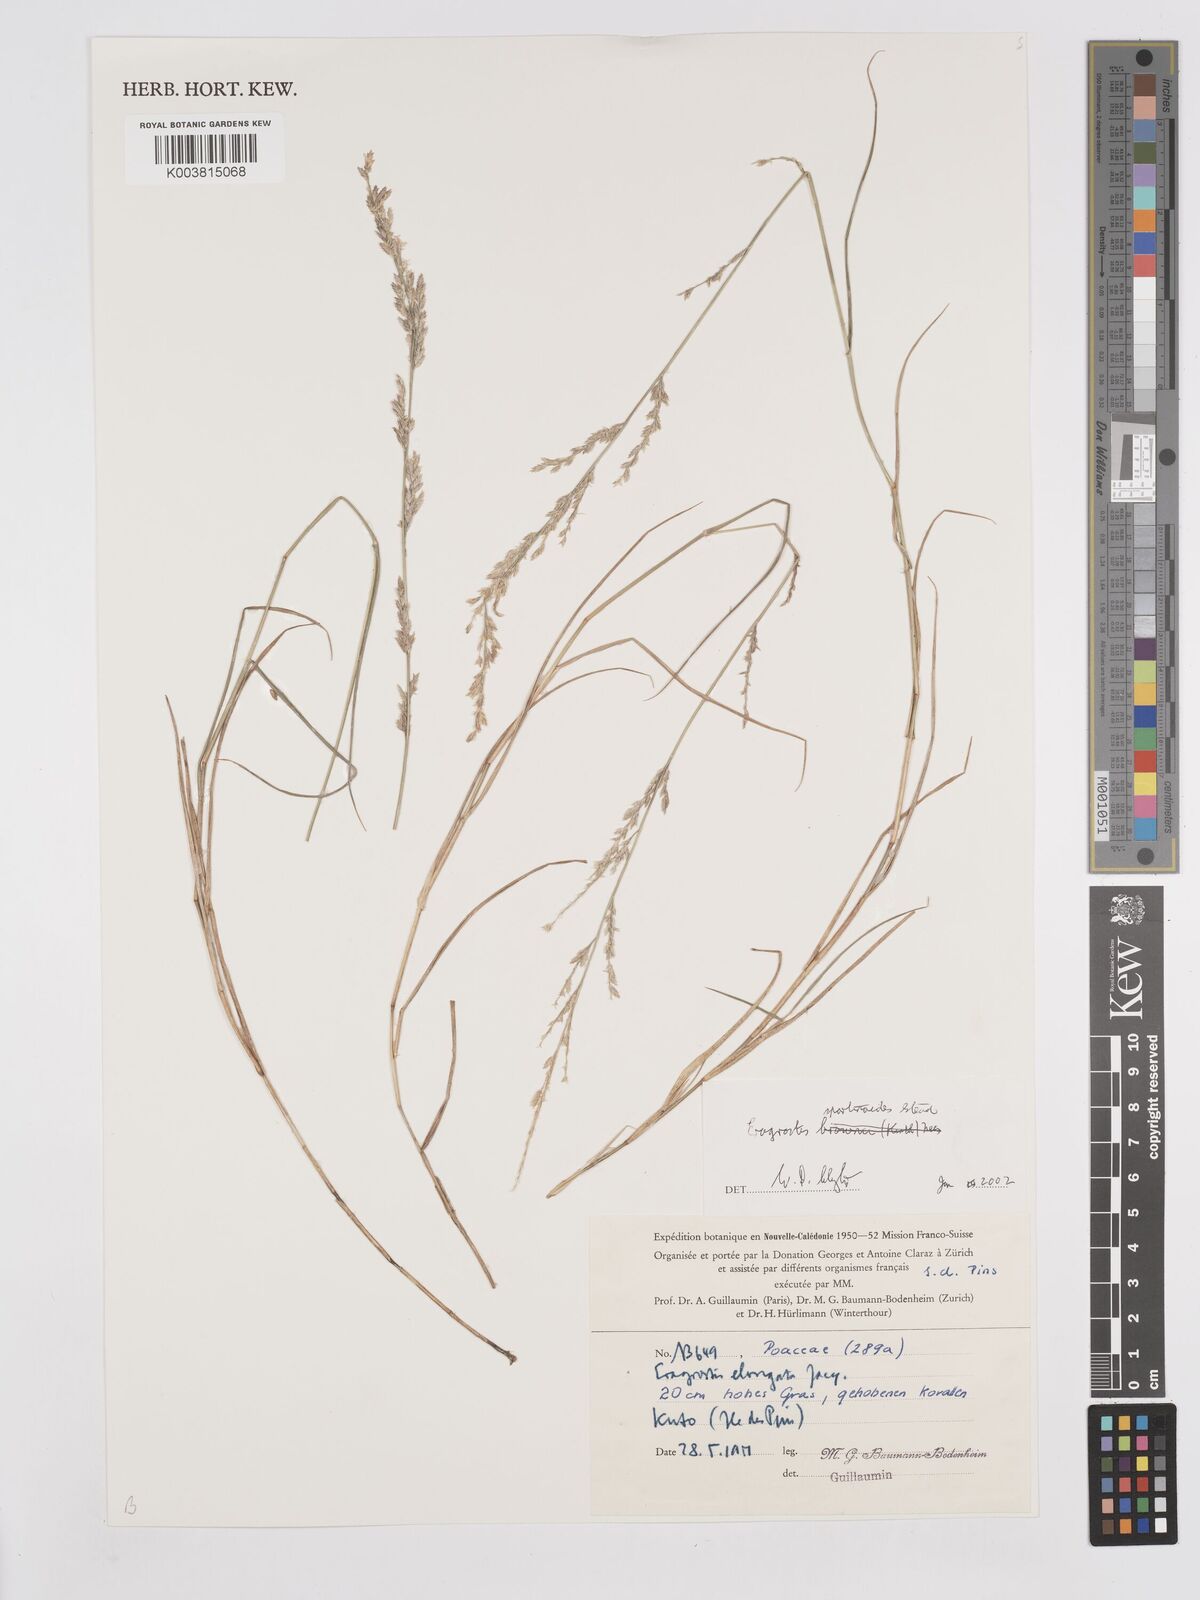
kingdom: Plantae
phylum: Tracheophyta
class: Liliopsida
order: Poales
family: Poaceae
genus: Eragrostis
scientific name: Eragrostis brownii
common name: Lovegrass
